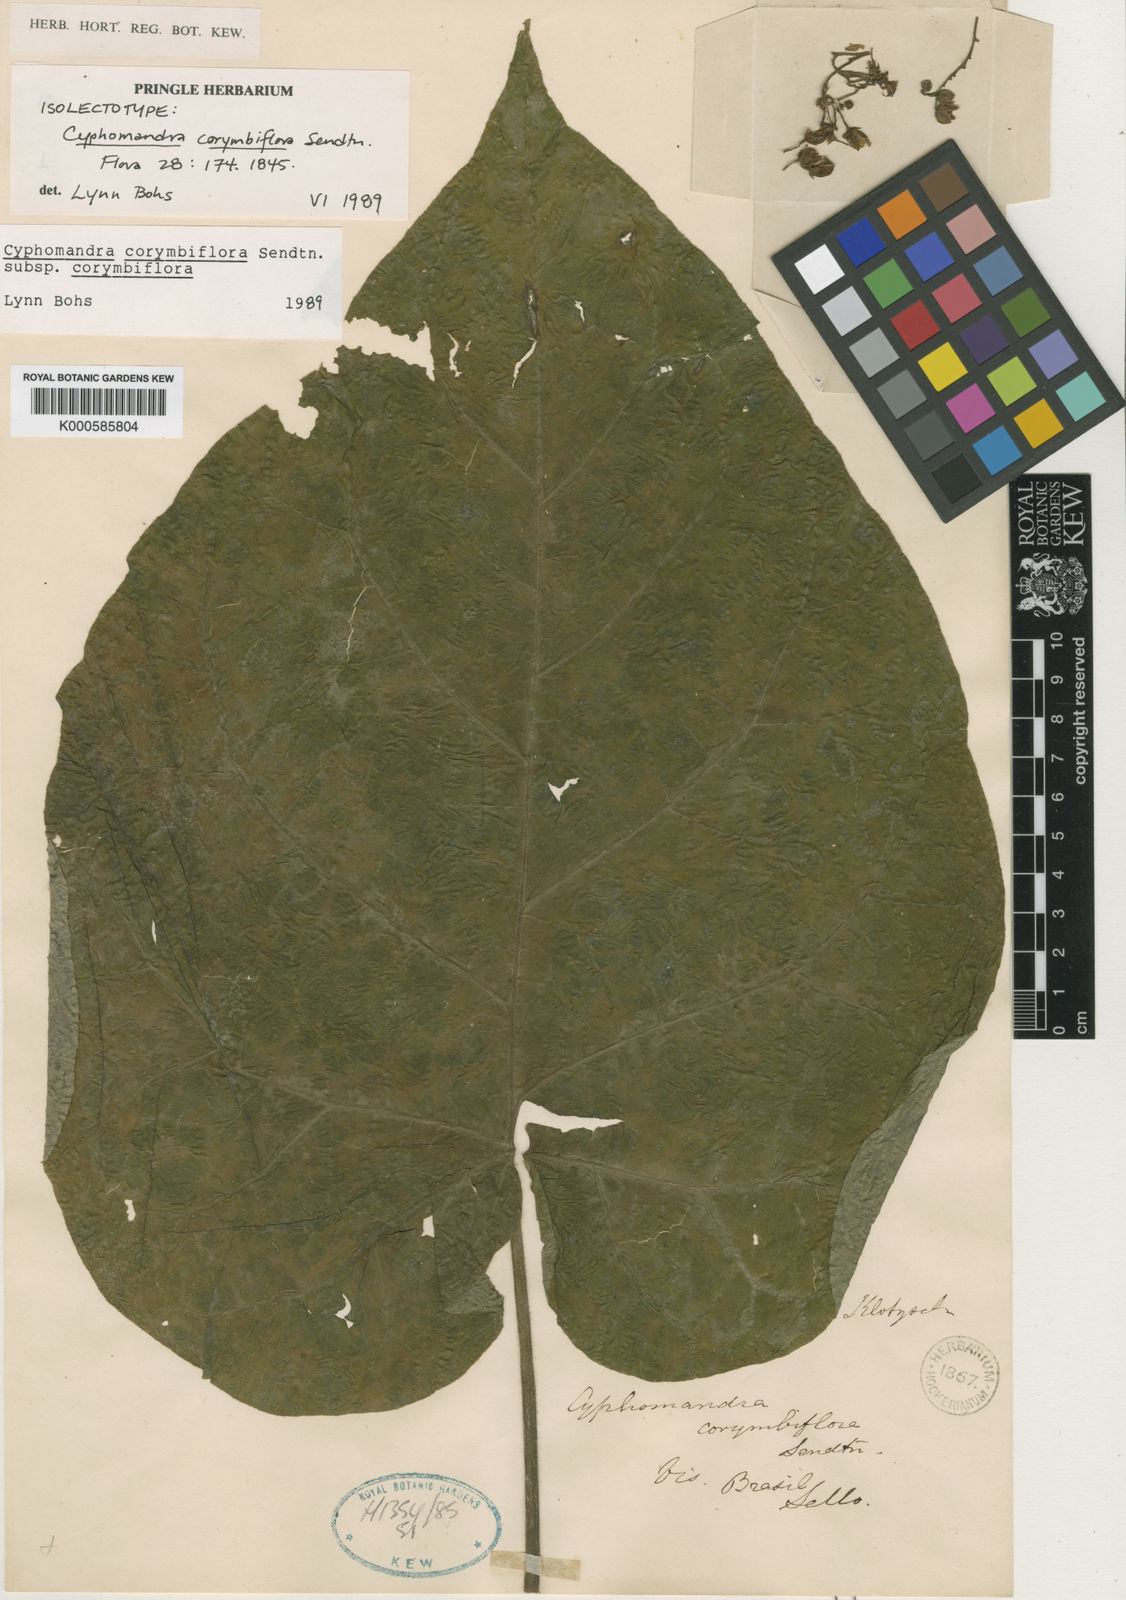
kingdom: Plantae
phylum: Tracheophyta
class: Magnoliopsida
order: Solanales
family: Solanaceae
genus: Solanum
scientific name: Solanum corymbiflorum
